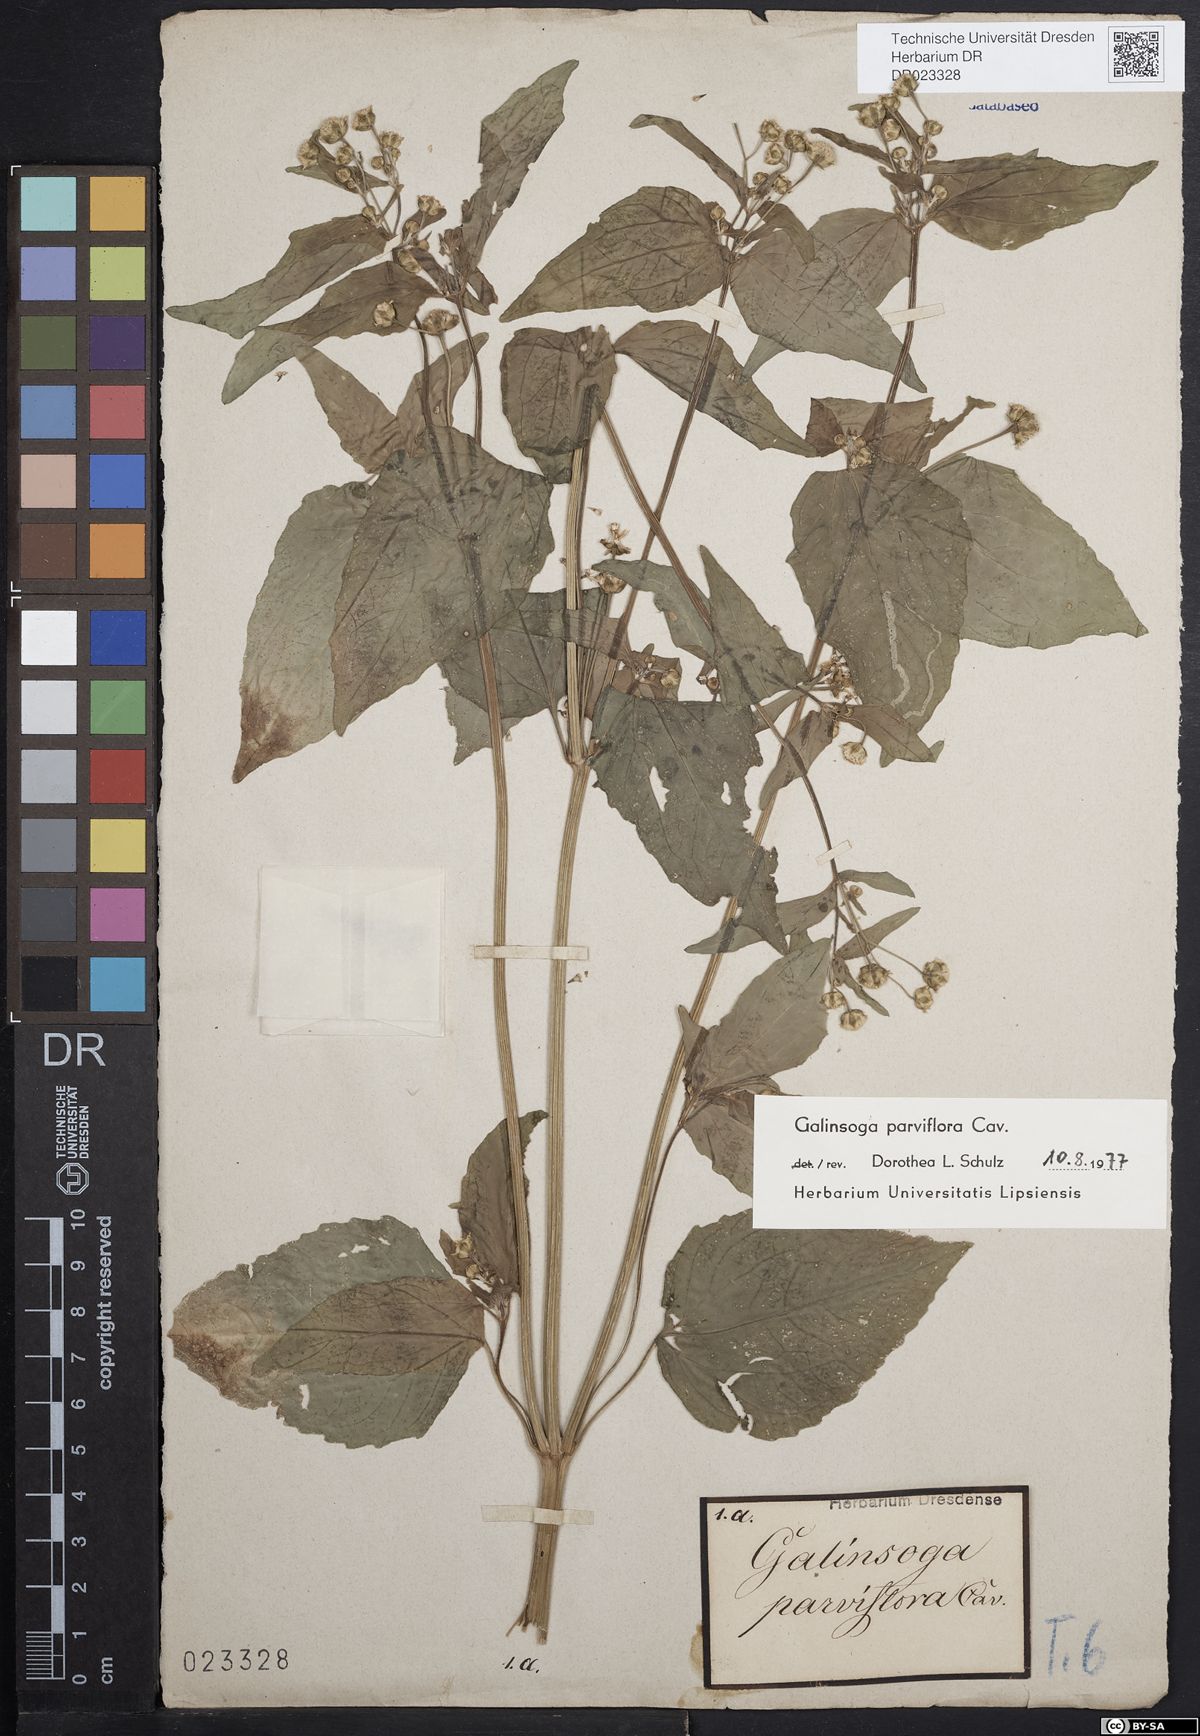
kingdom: Plantae
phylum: Tracheophyta
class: Magnoliopsida
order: Asterales
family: Asteraceae
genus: Galinsoga
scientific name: Galinsoga parviflora
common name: Gallant soldier
